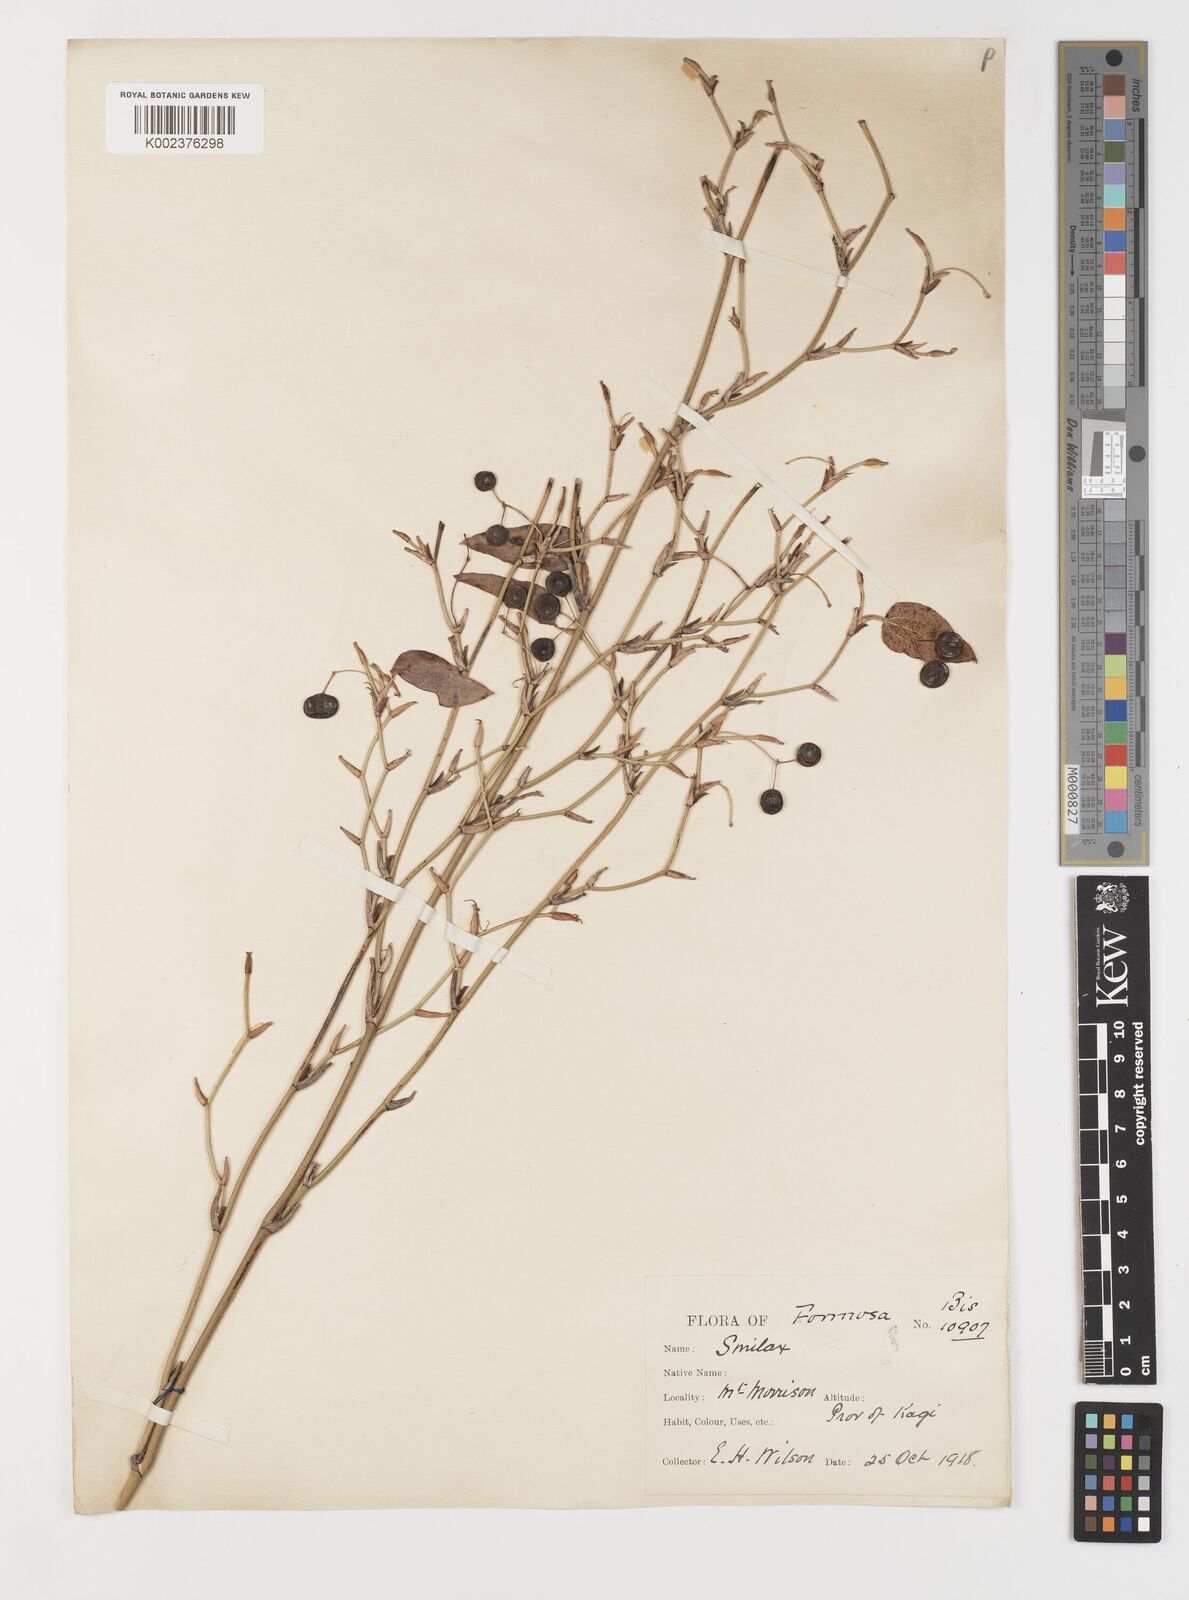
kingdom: Plantae
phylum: Tracheophyta
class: Liliopsida
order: Liliales
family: Smilacaceae
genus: Smilax
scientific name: Smilax pygmaea
